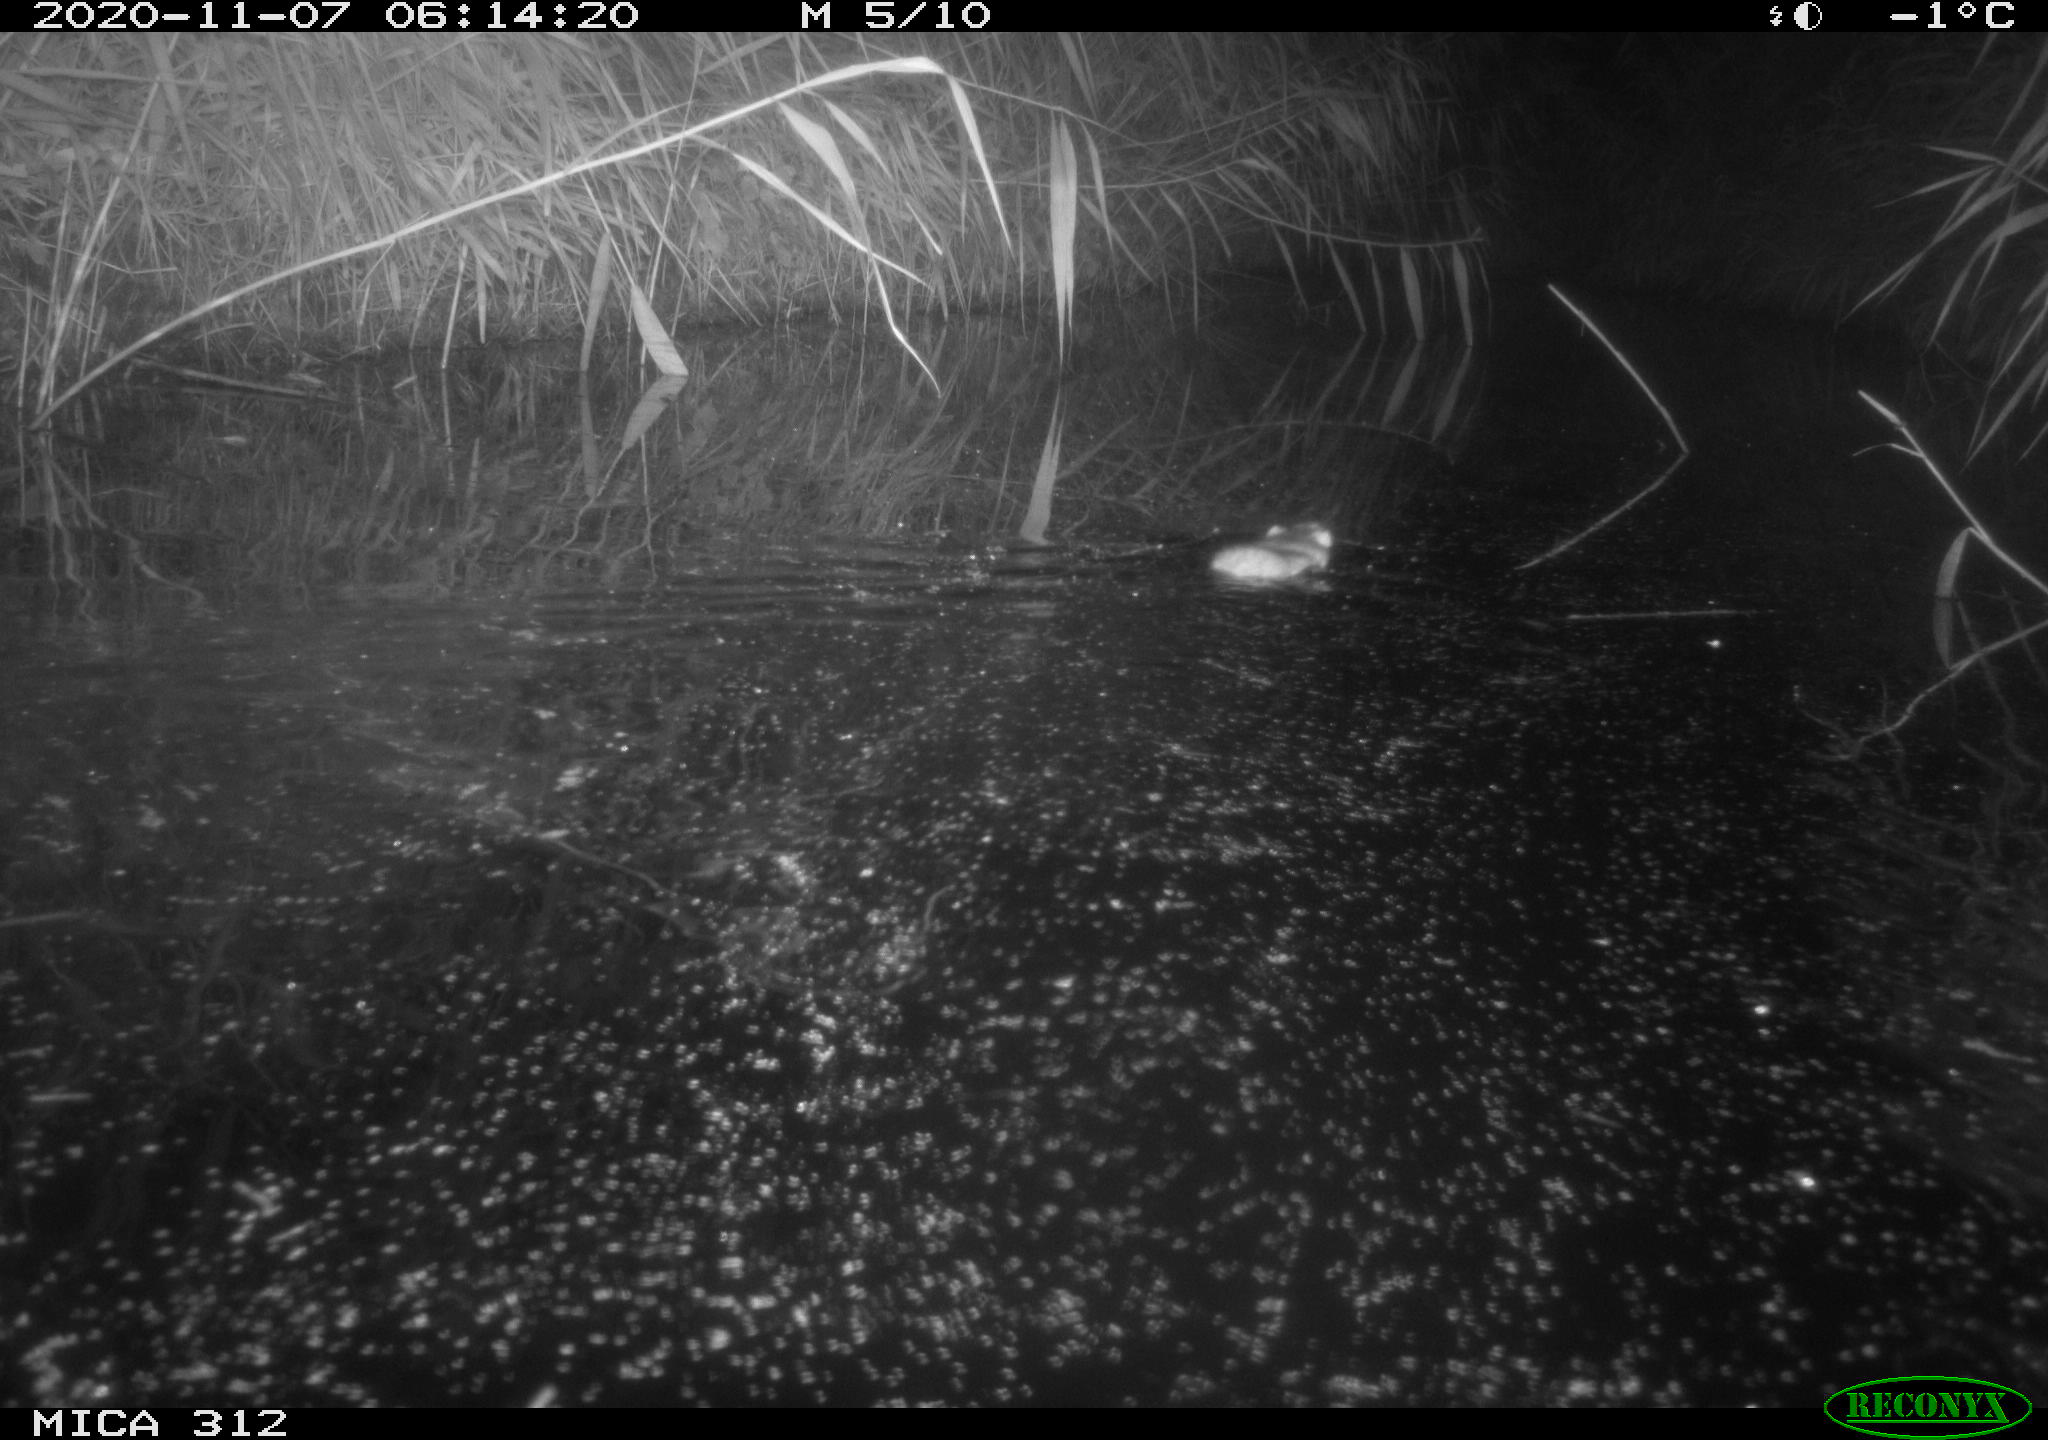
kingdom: Animalia
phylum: Chordata
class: Mammalia
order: Rodentia
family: Muridae
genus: Rattus
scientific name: Rattus norvegicus
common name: Brown rat
